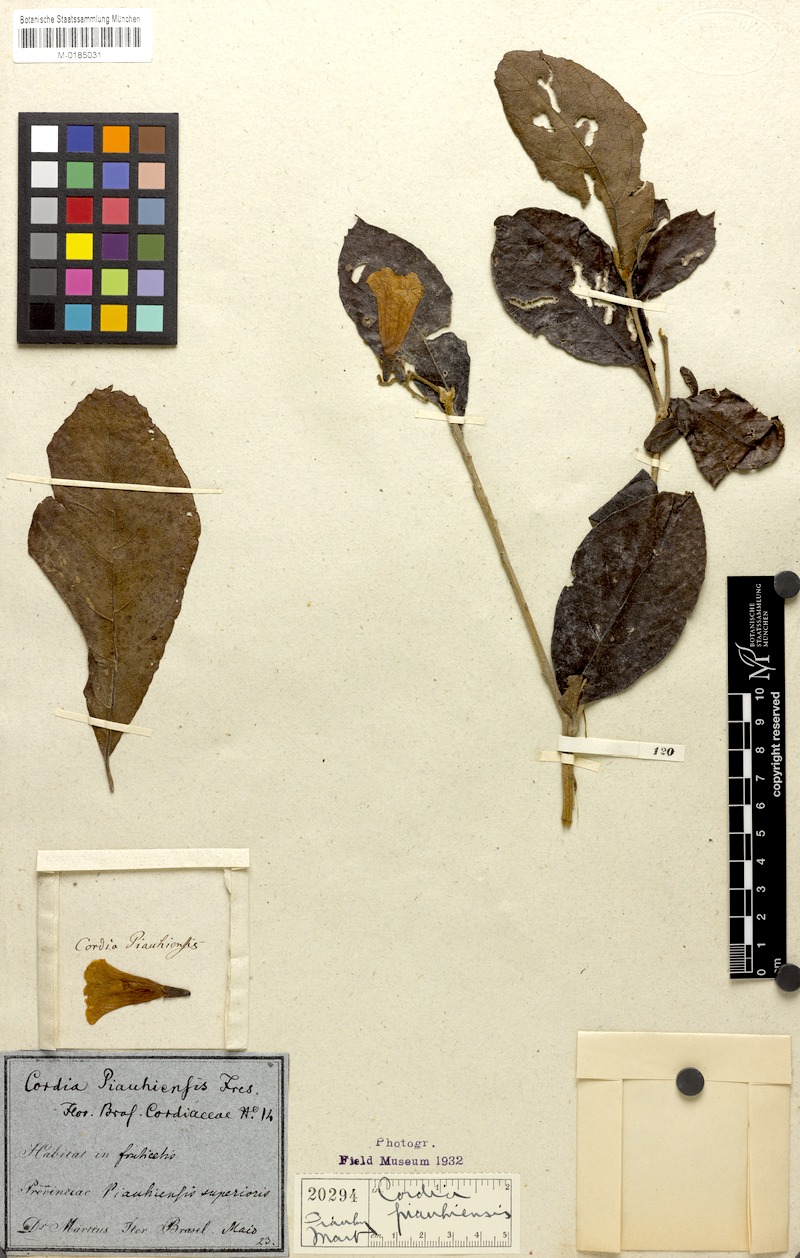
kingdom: Plantae
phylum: Tracheophyta
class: Magnoliopsida
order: Boraginales
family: Cordiaceae
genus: Cordia
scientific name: Cordia rufescens
